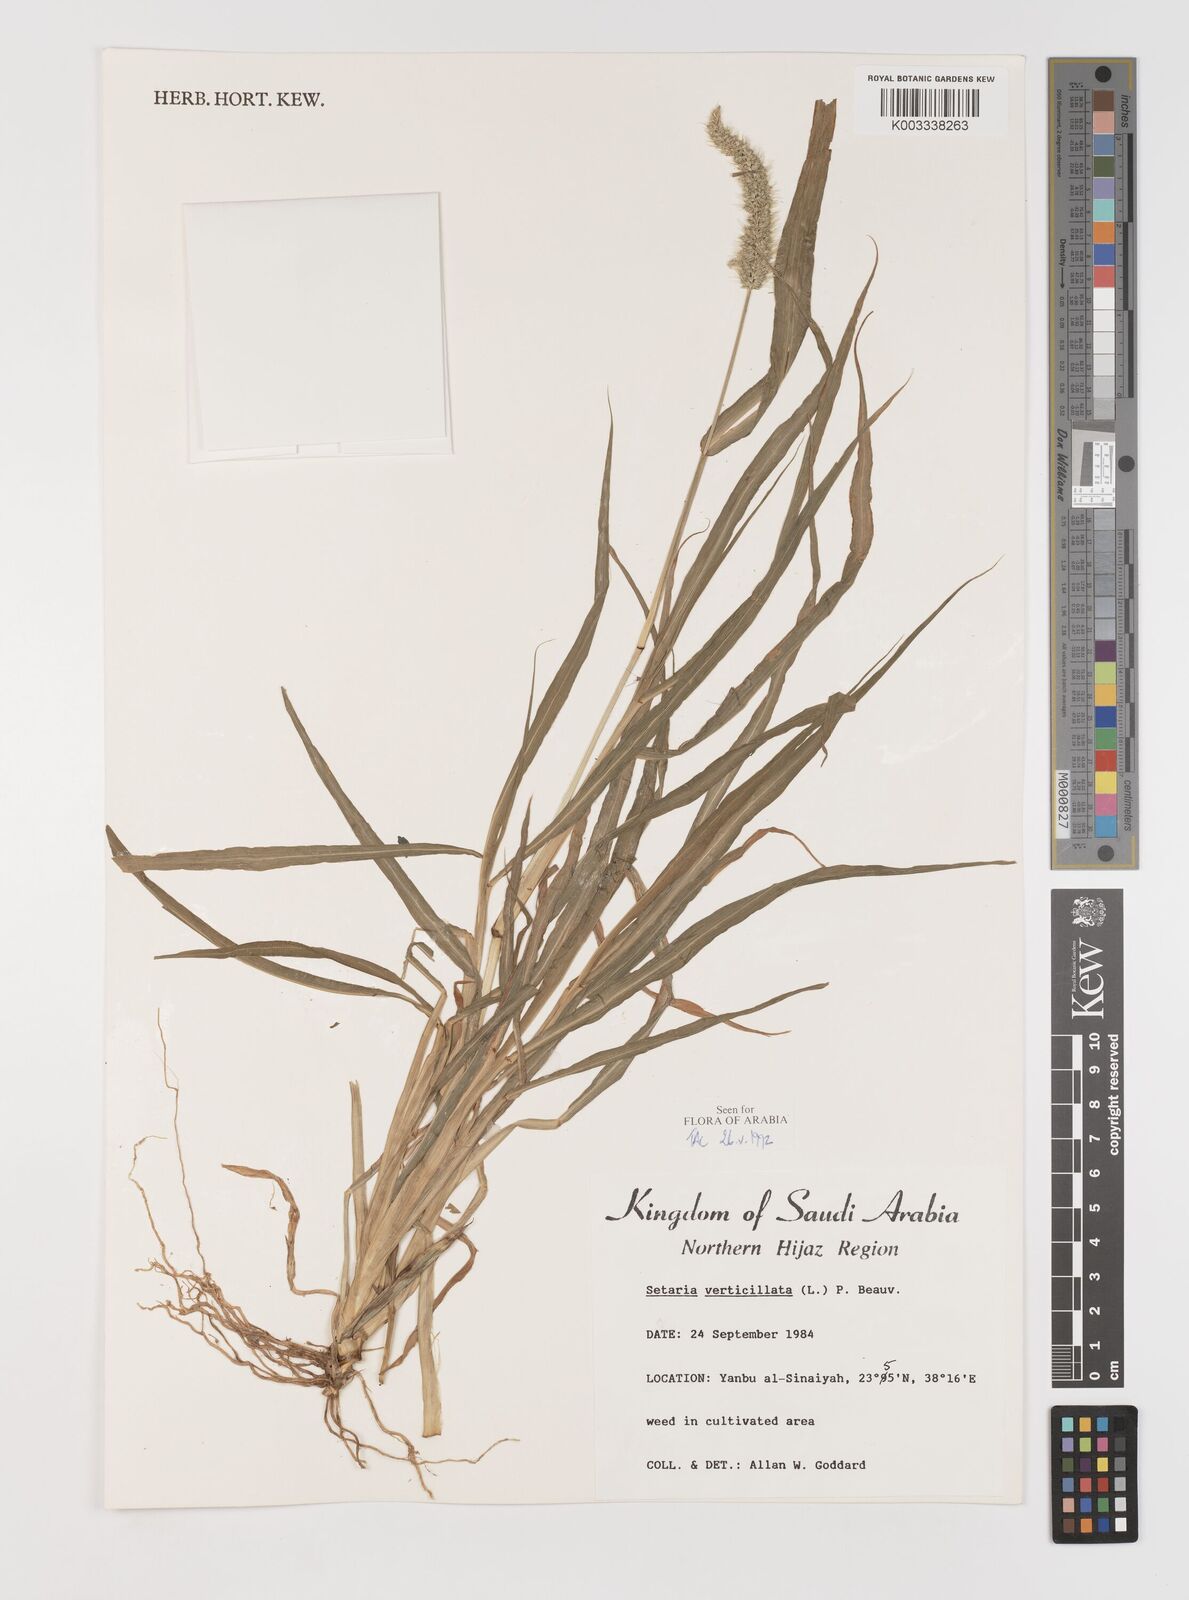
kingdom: Plantae
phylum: Tracheophyta
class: Liliopsida
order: Poales
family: Poaceae
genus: Setaria
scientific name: Setaria verticillata
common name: Hooked bristlegrass
